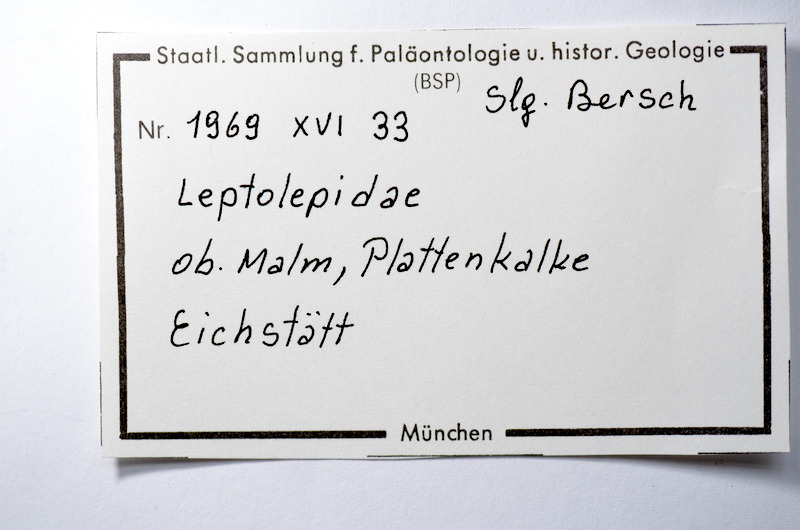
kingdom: Animalia
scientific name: Animalia
